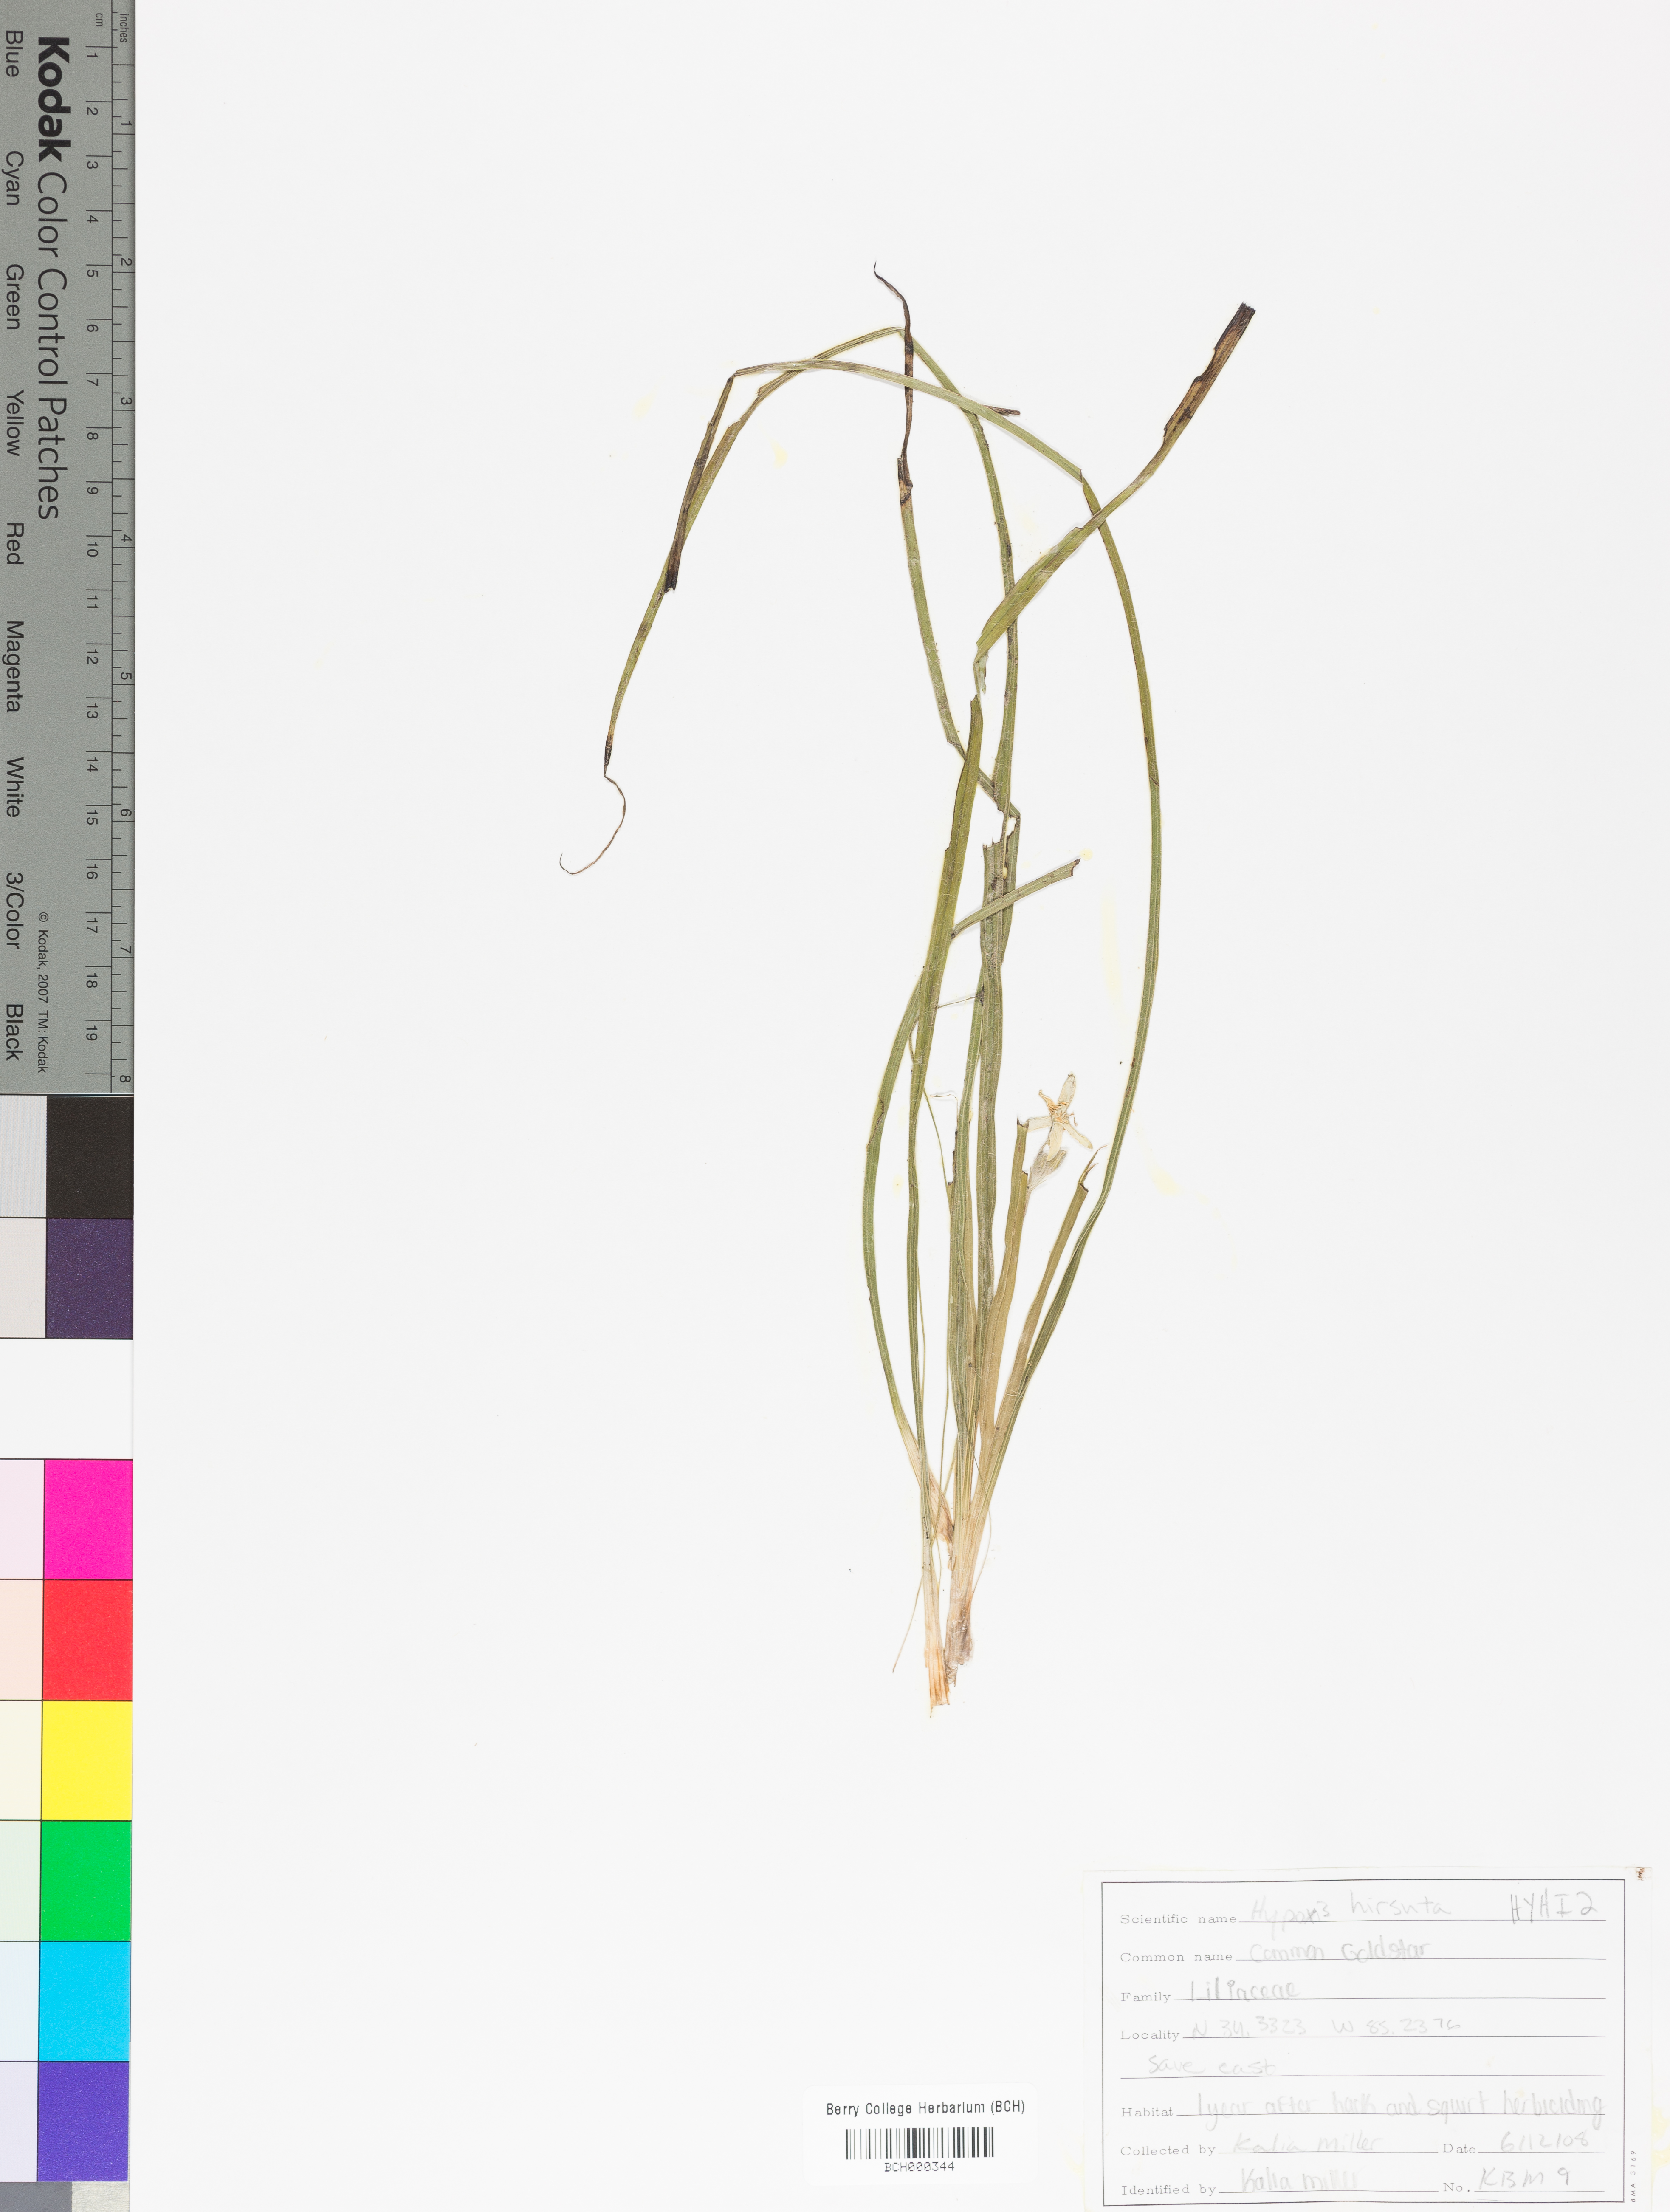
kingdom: Plantae
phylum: Tracheophyta
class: Liliopsida
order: Asparagales
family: Hypoxidaceae
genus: Hypoxis
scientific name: Hypoxis hirsuta
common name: Common goldstar
